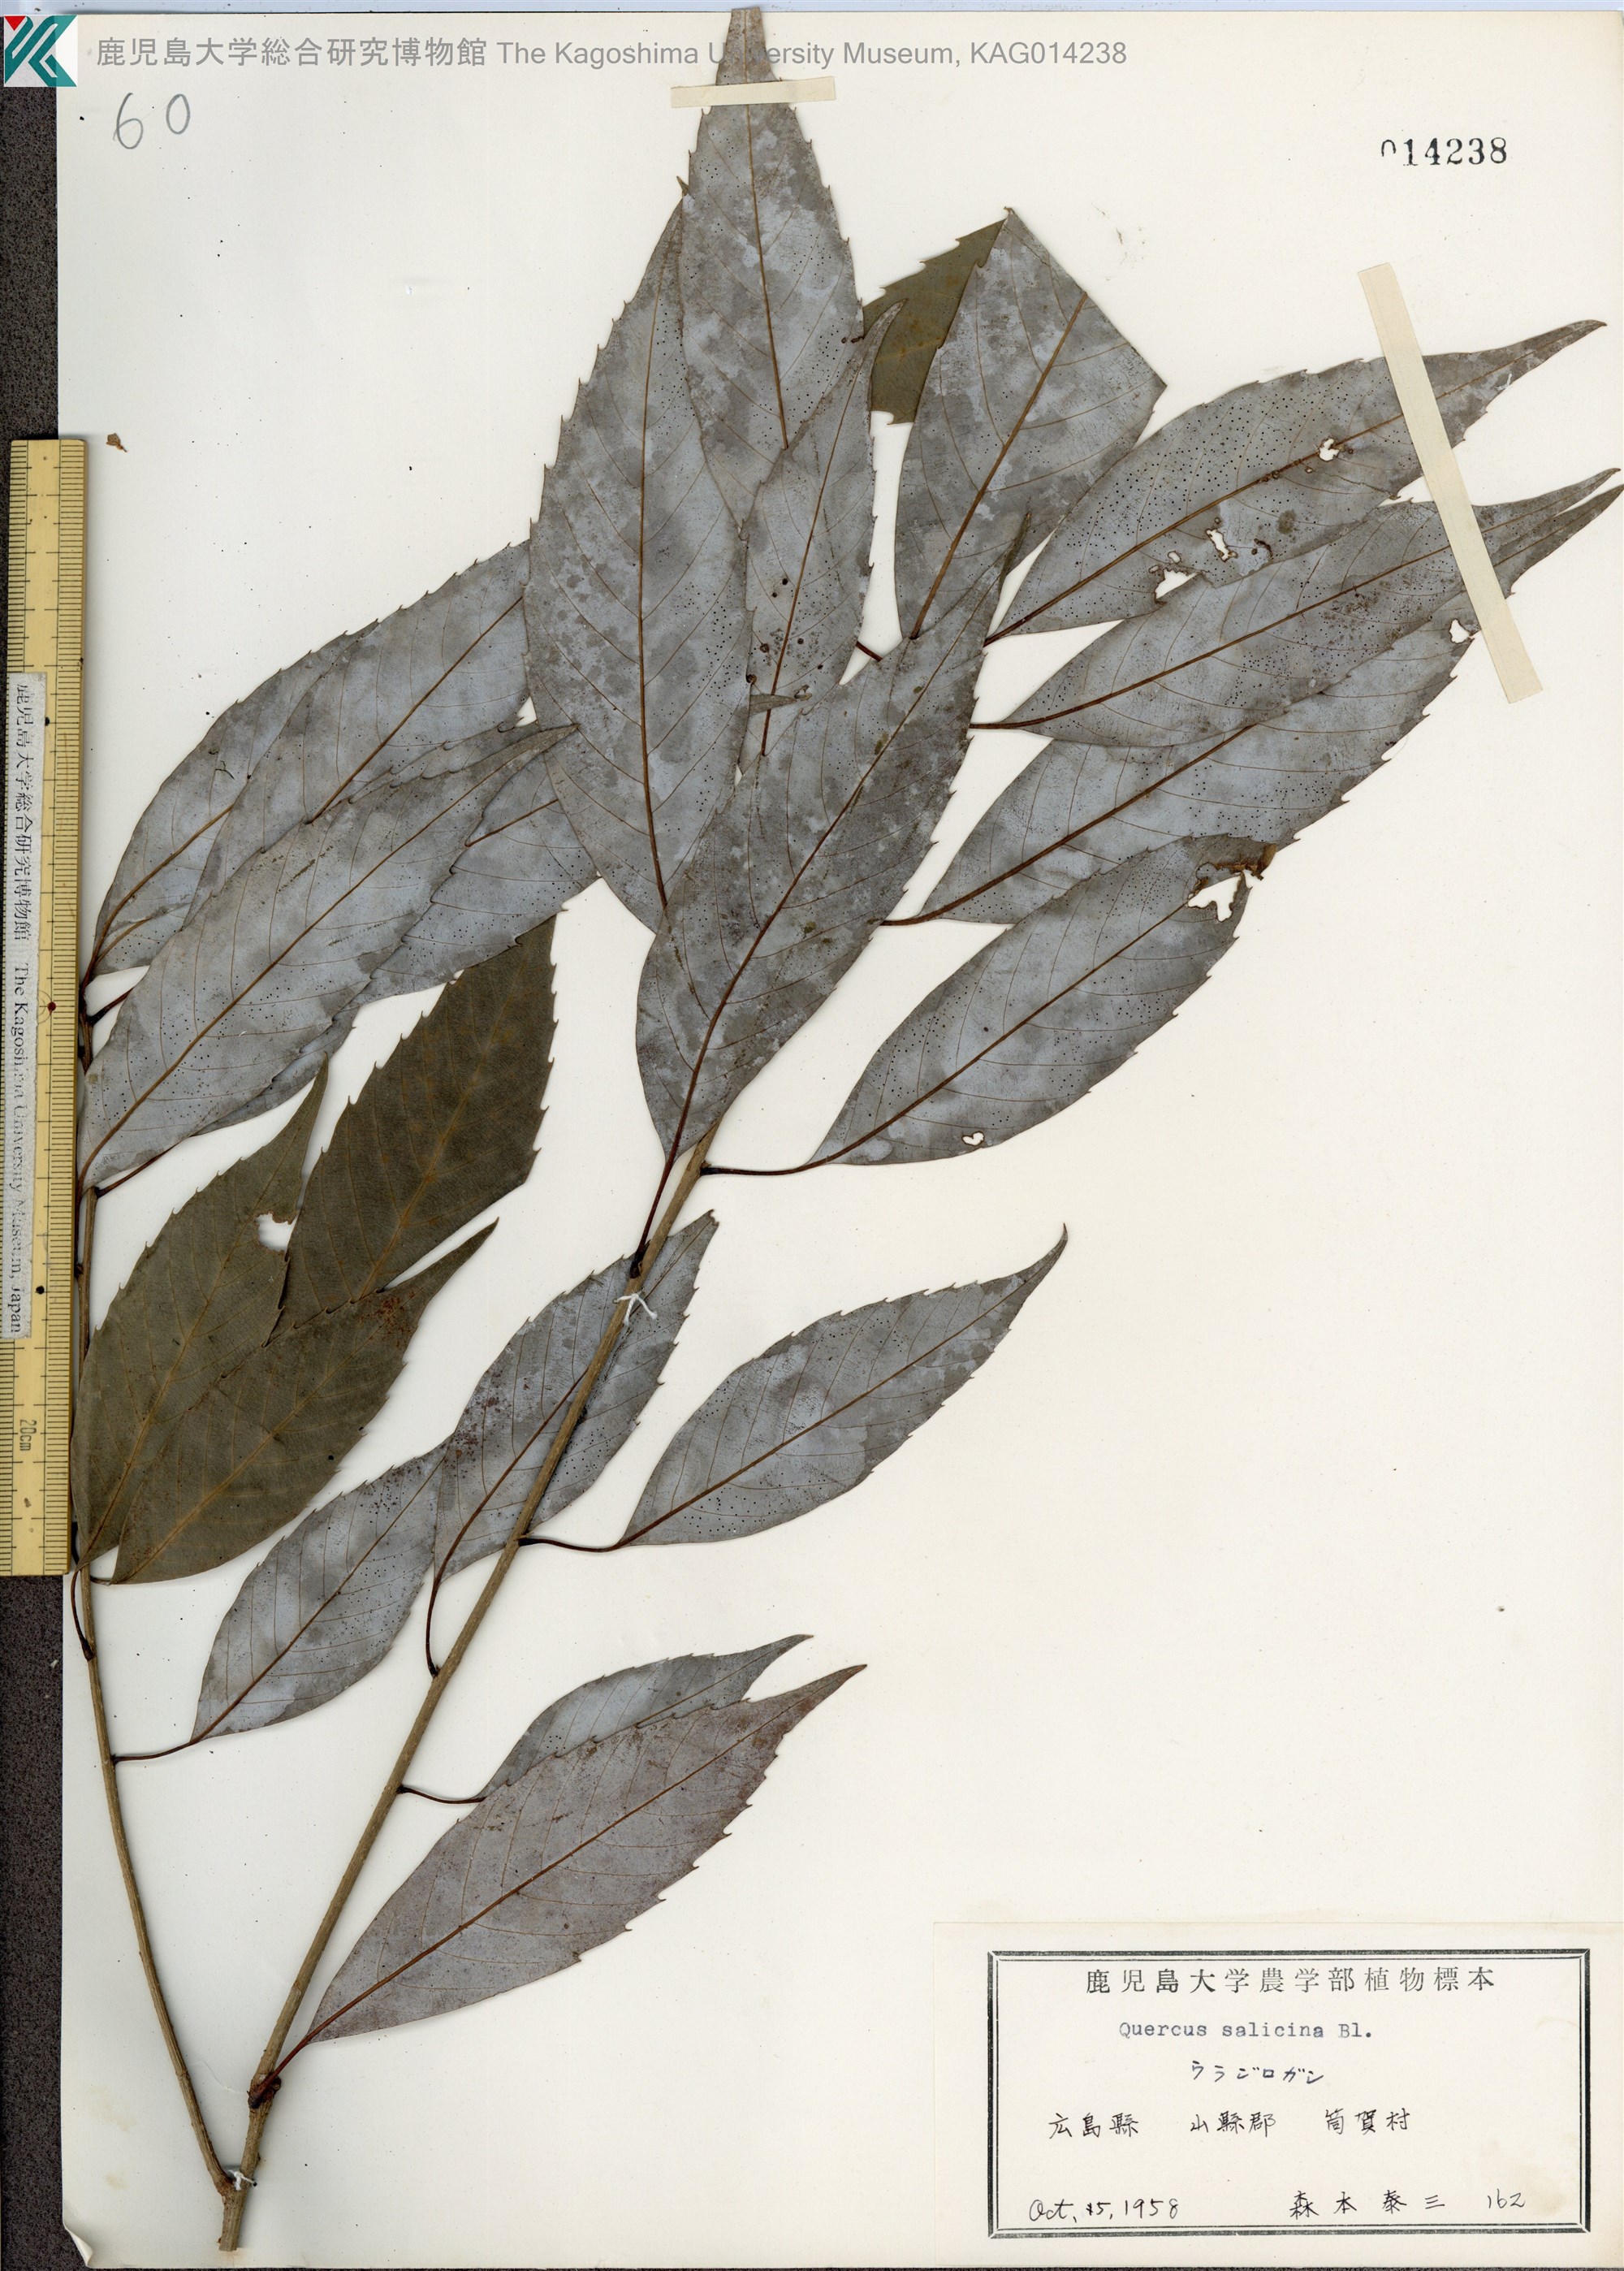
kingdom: Plantae
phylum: Tracheophyta
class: Magnoliopsida
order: Fagales
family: Fagaceae
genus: Quercus
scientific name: Quercus salicina
